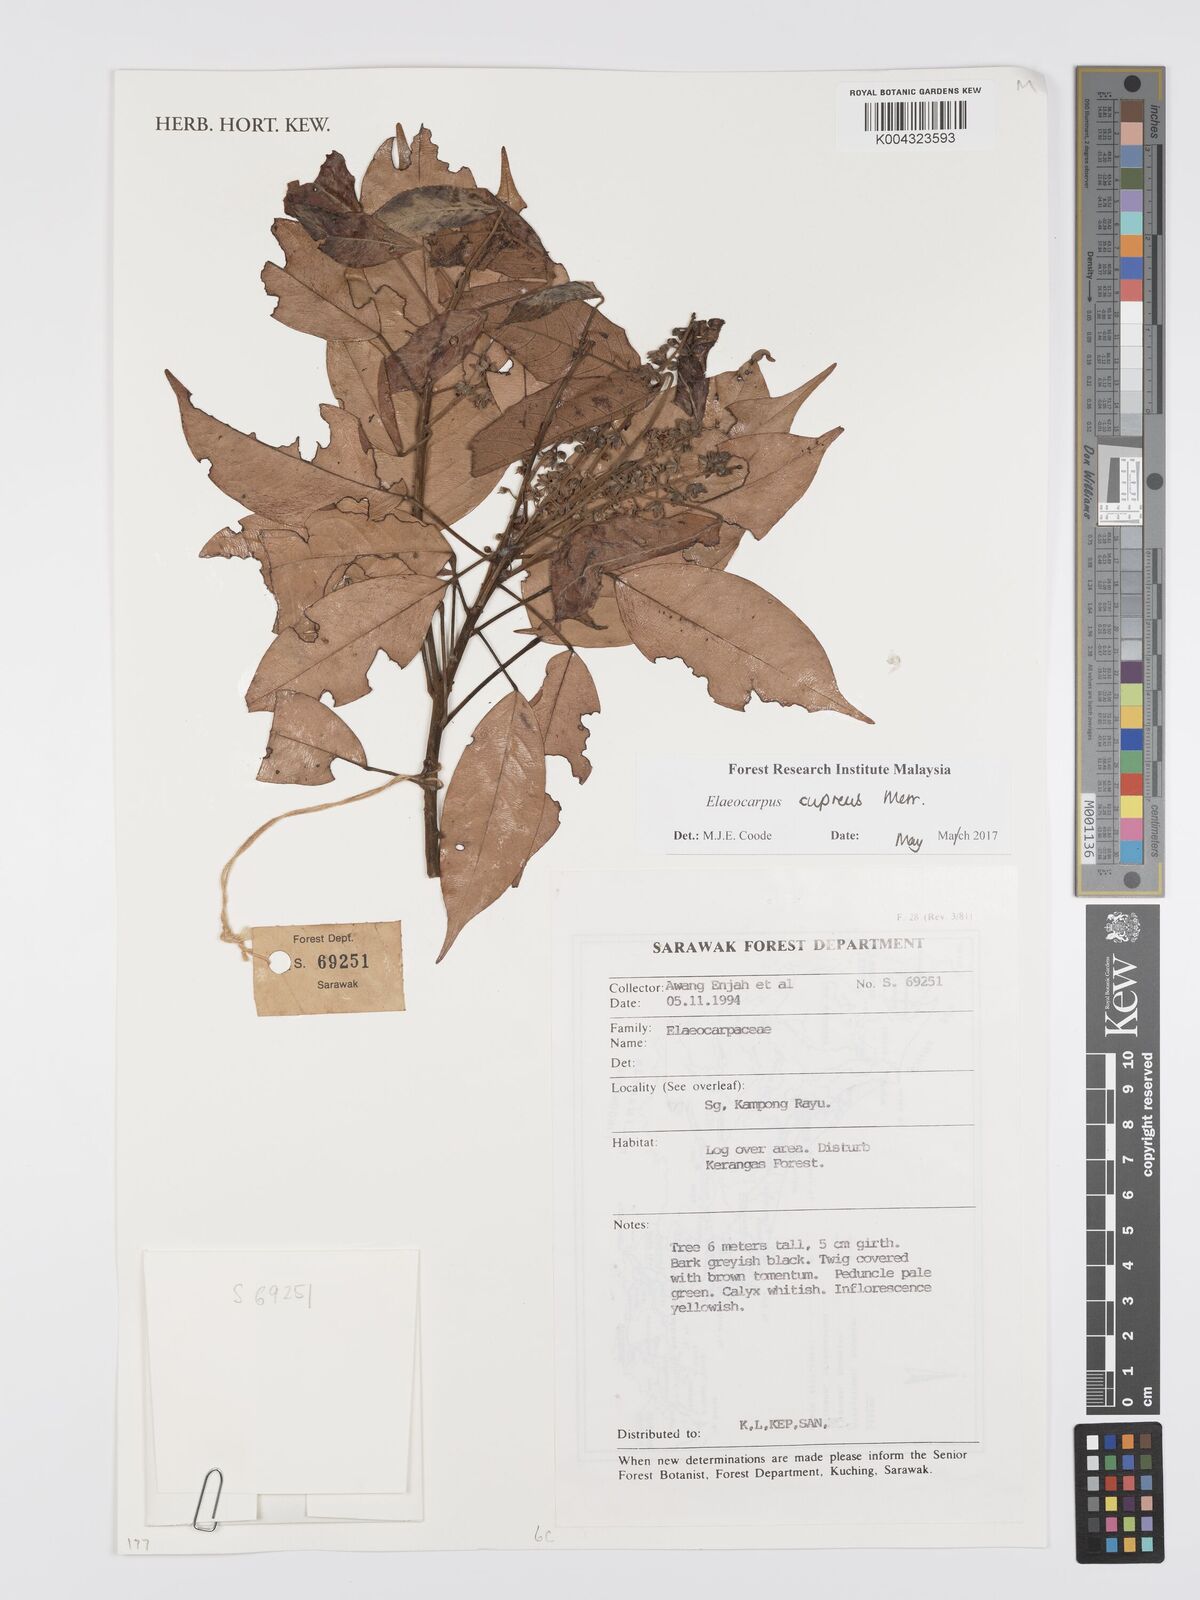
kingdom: Plantae
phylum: Tracheophyta
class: Magnoliopsida
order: Oxalidales
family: Elaeocarpaceae
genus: Elaeocarpus
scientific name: Elaeocarpus cupreus
